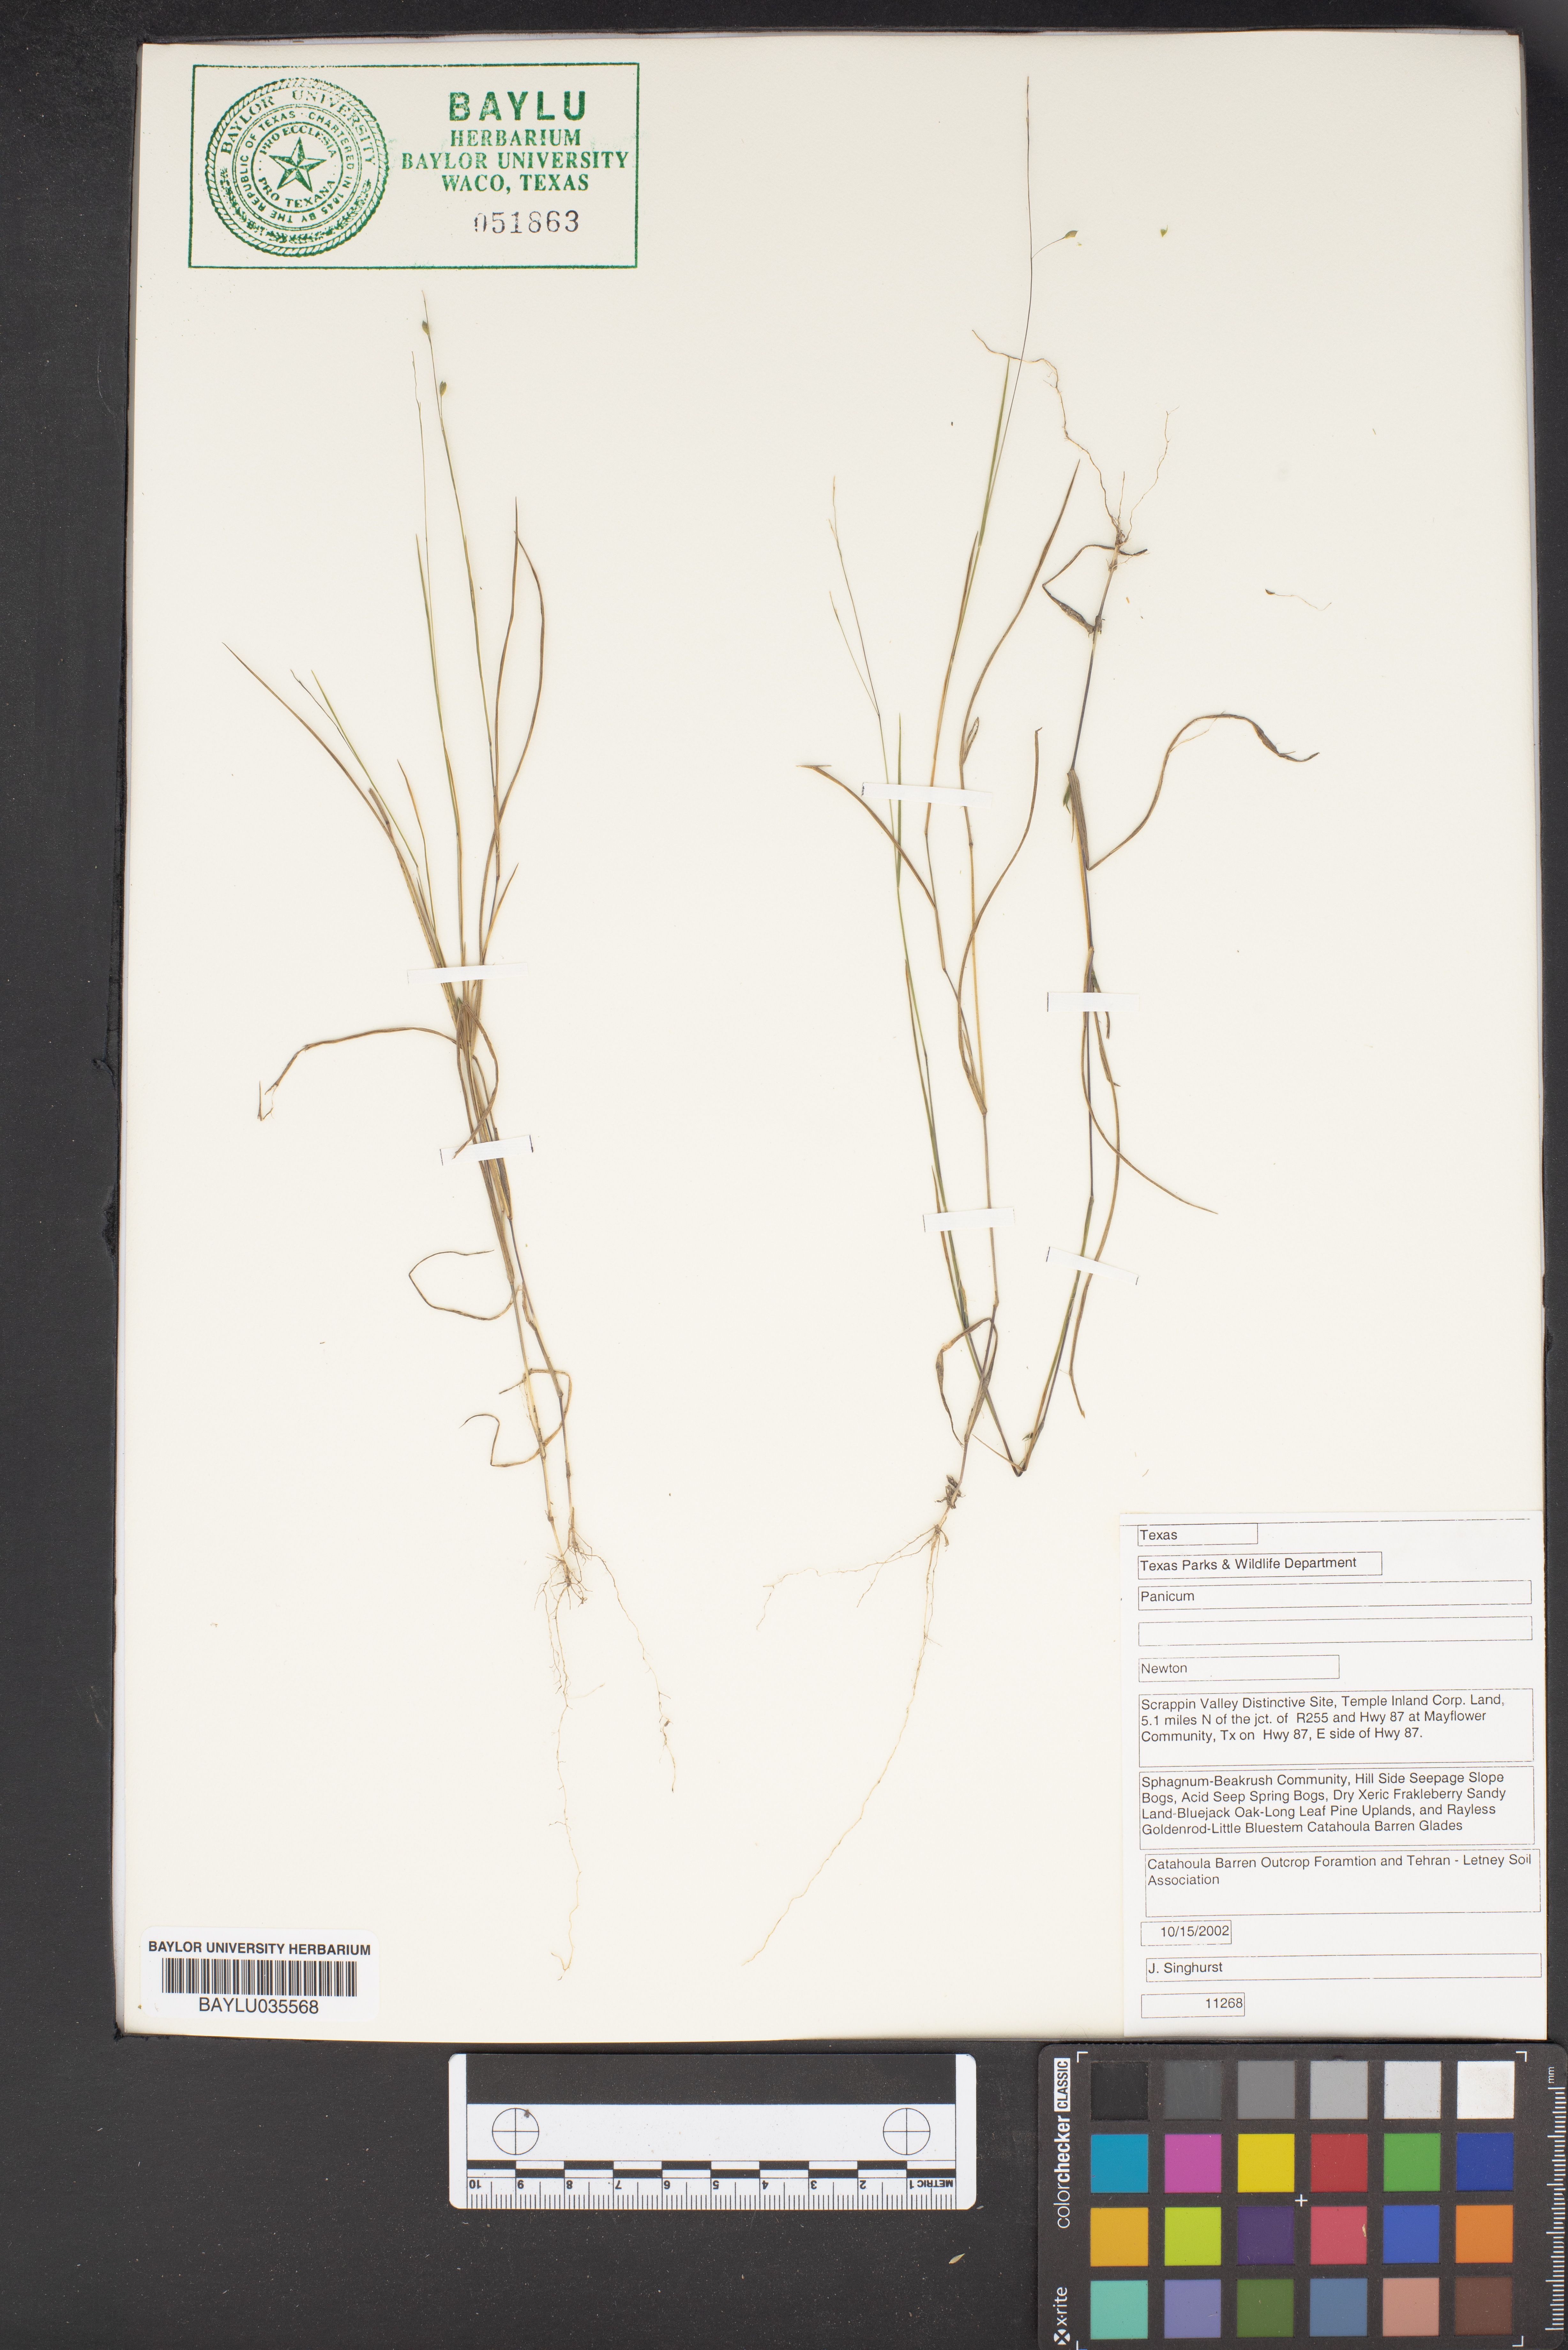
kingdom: Plantae
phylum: Tracheophyta
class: Liliopsida
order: Poales
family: Poaceae
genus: Panicum
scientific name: Panicum
